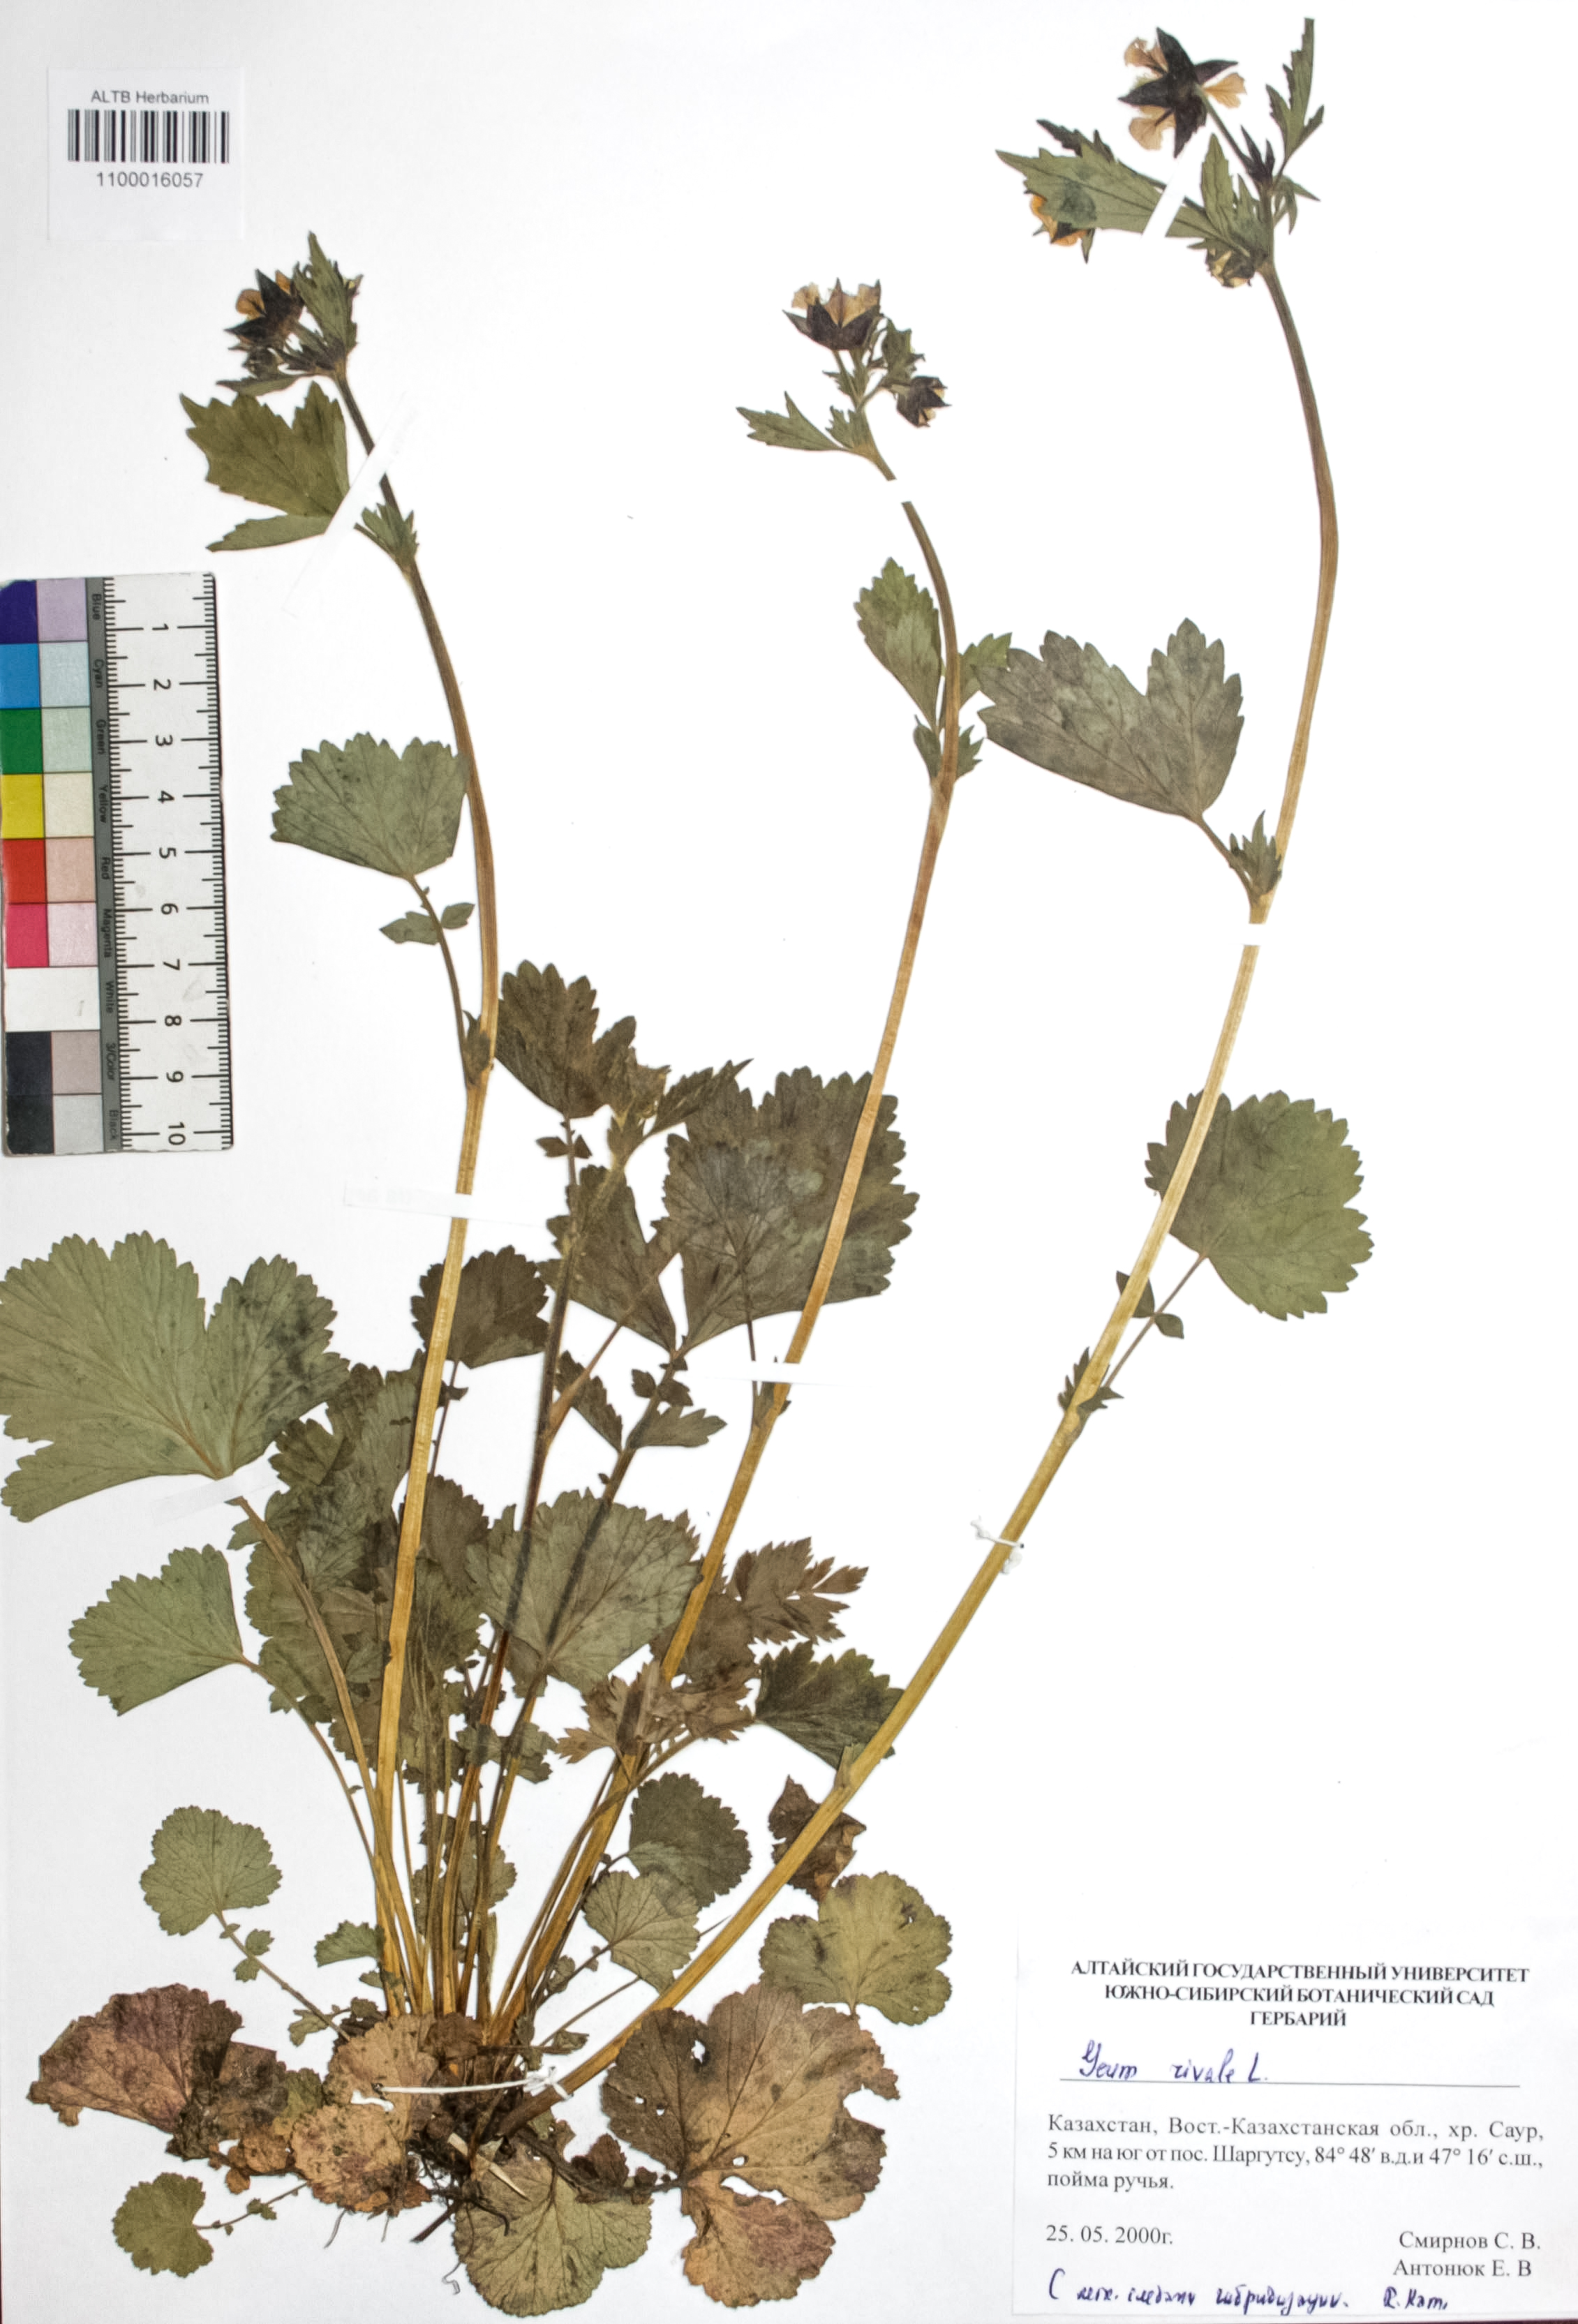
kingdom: Plantae
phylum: Tracheophyta
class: Magnoliopsida
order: Rosales
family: Rosaceae
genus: Geum
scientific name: Geum rivale
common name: Water avens
